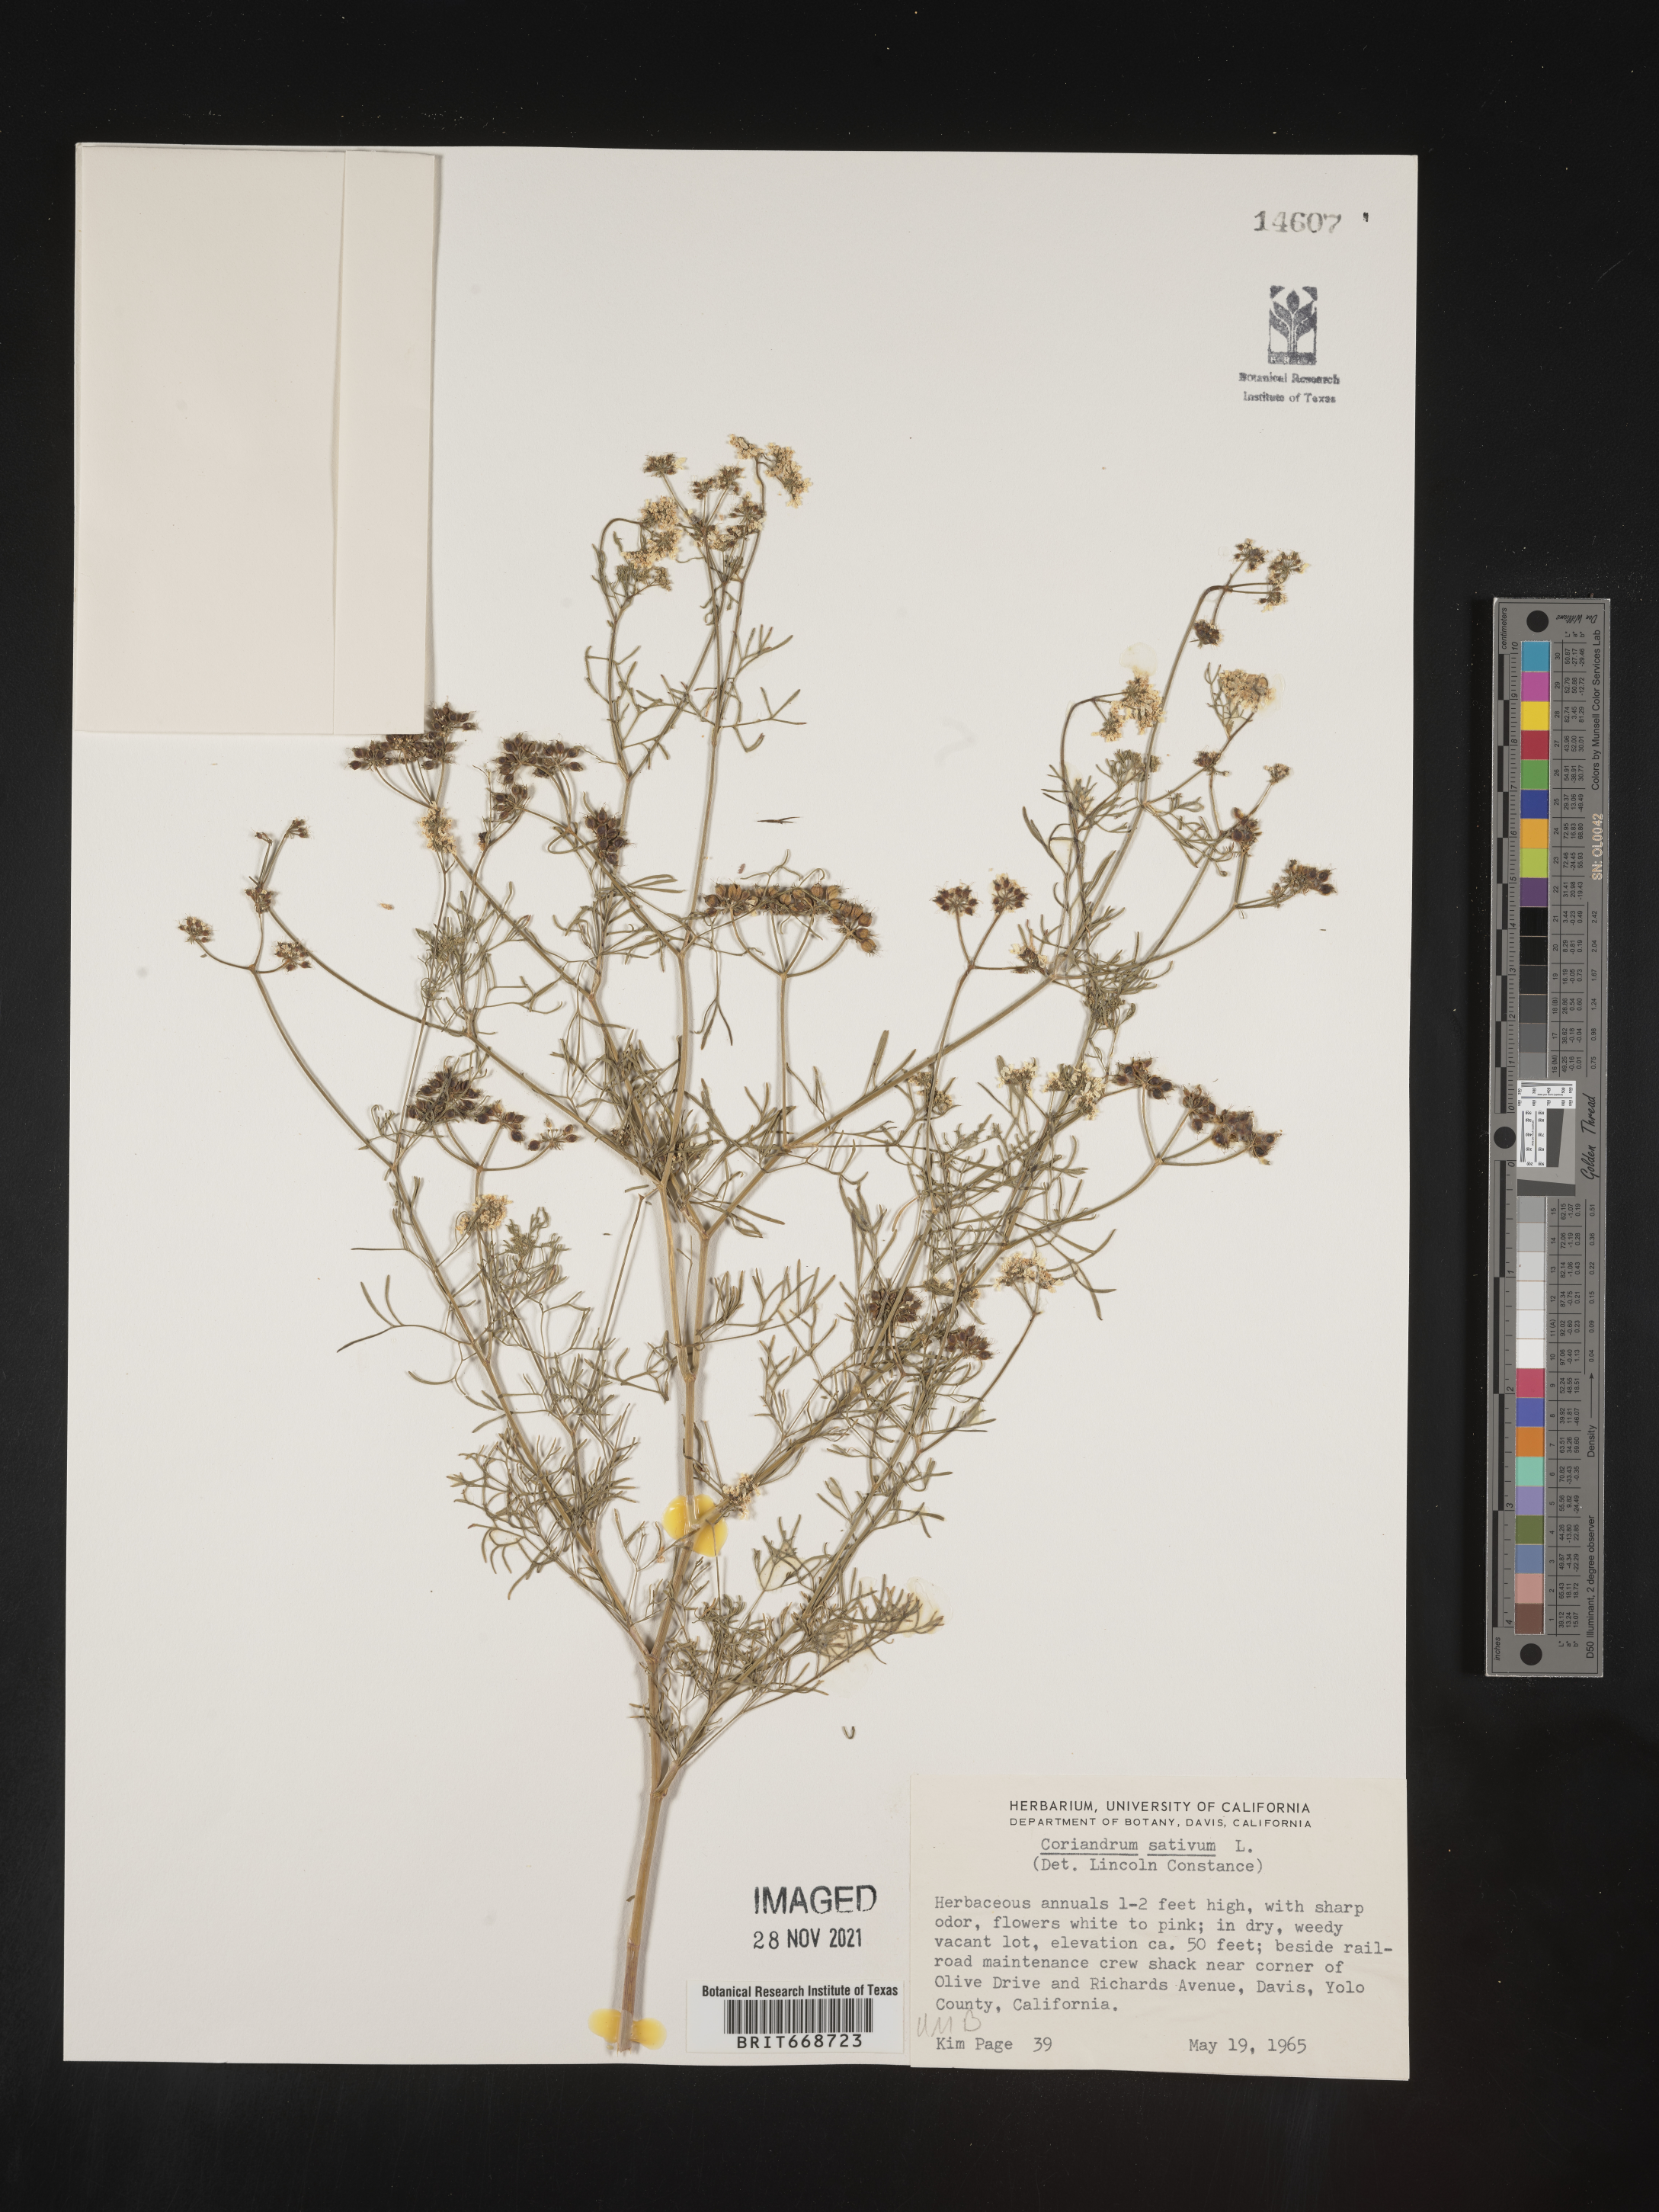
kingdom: Plantae
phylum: Tracheophyta
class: Magnoliopsida
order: Apiales
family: Apiaceae
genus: Coriandrum
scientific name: Coriandrum
